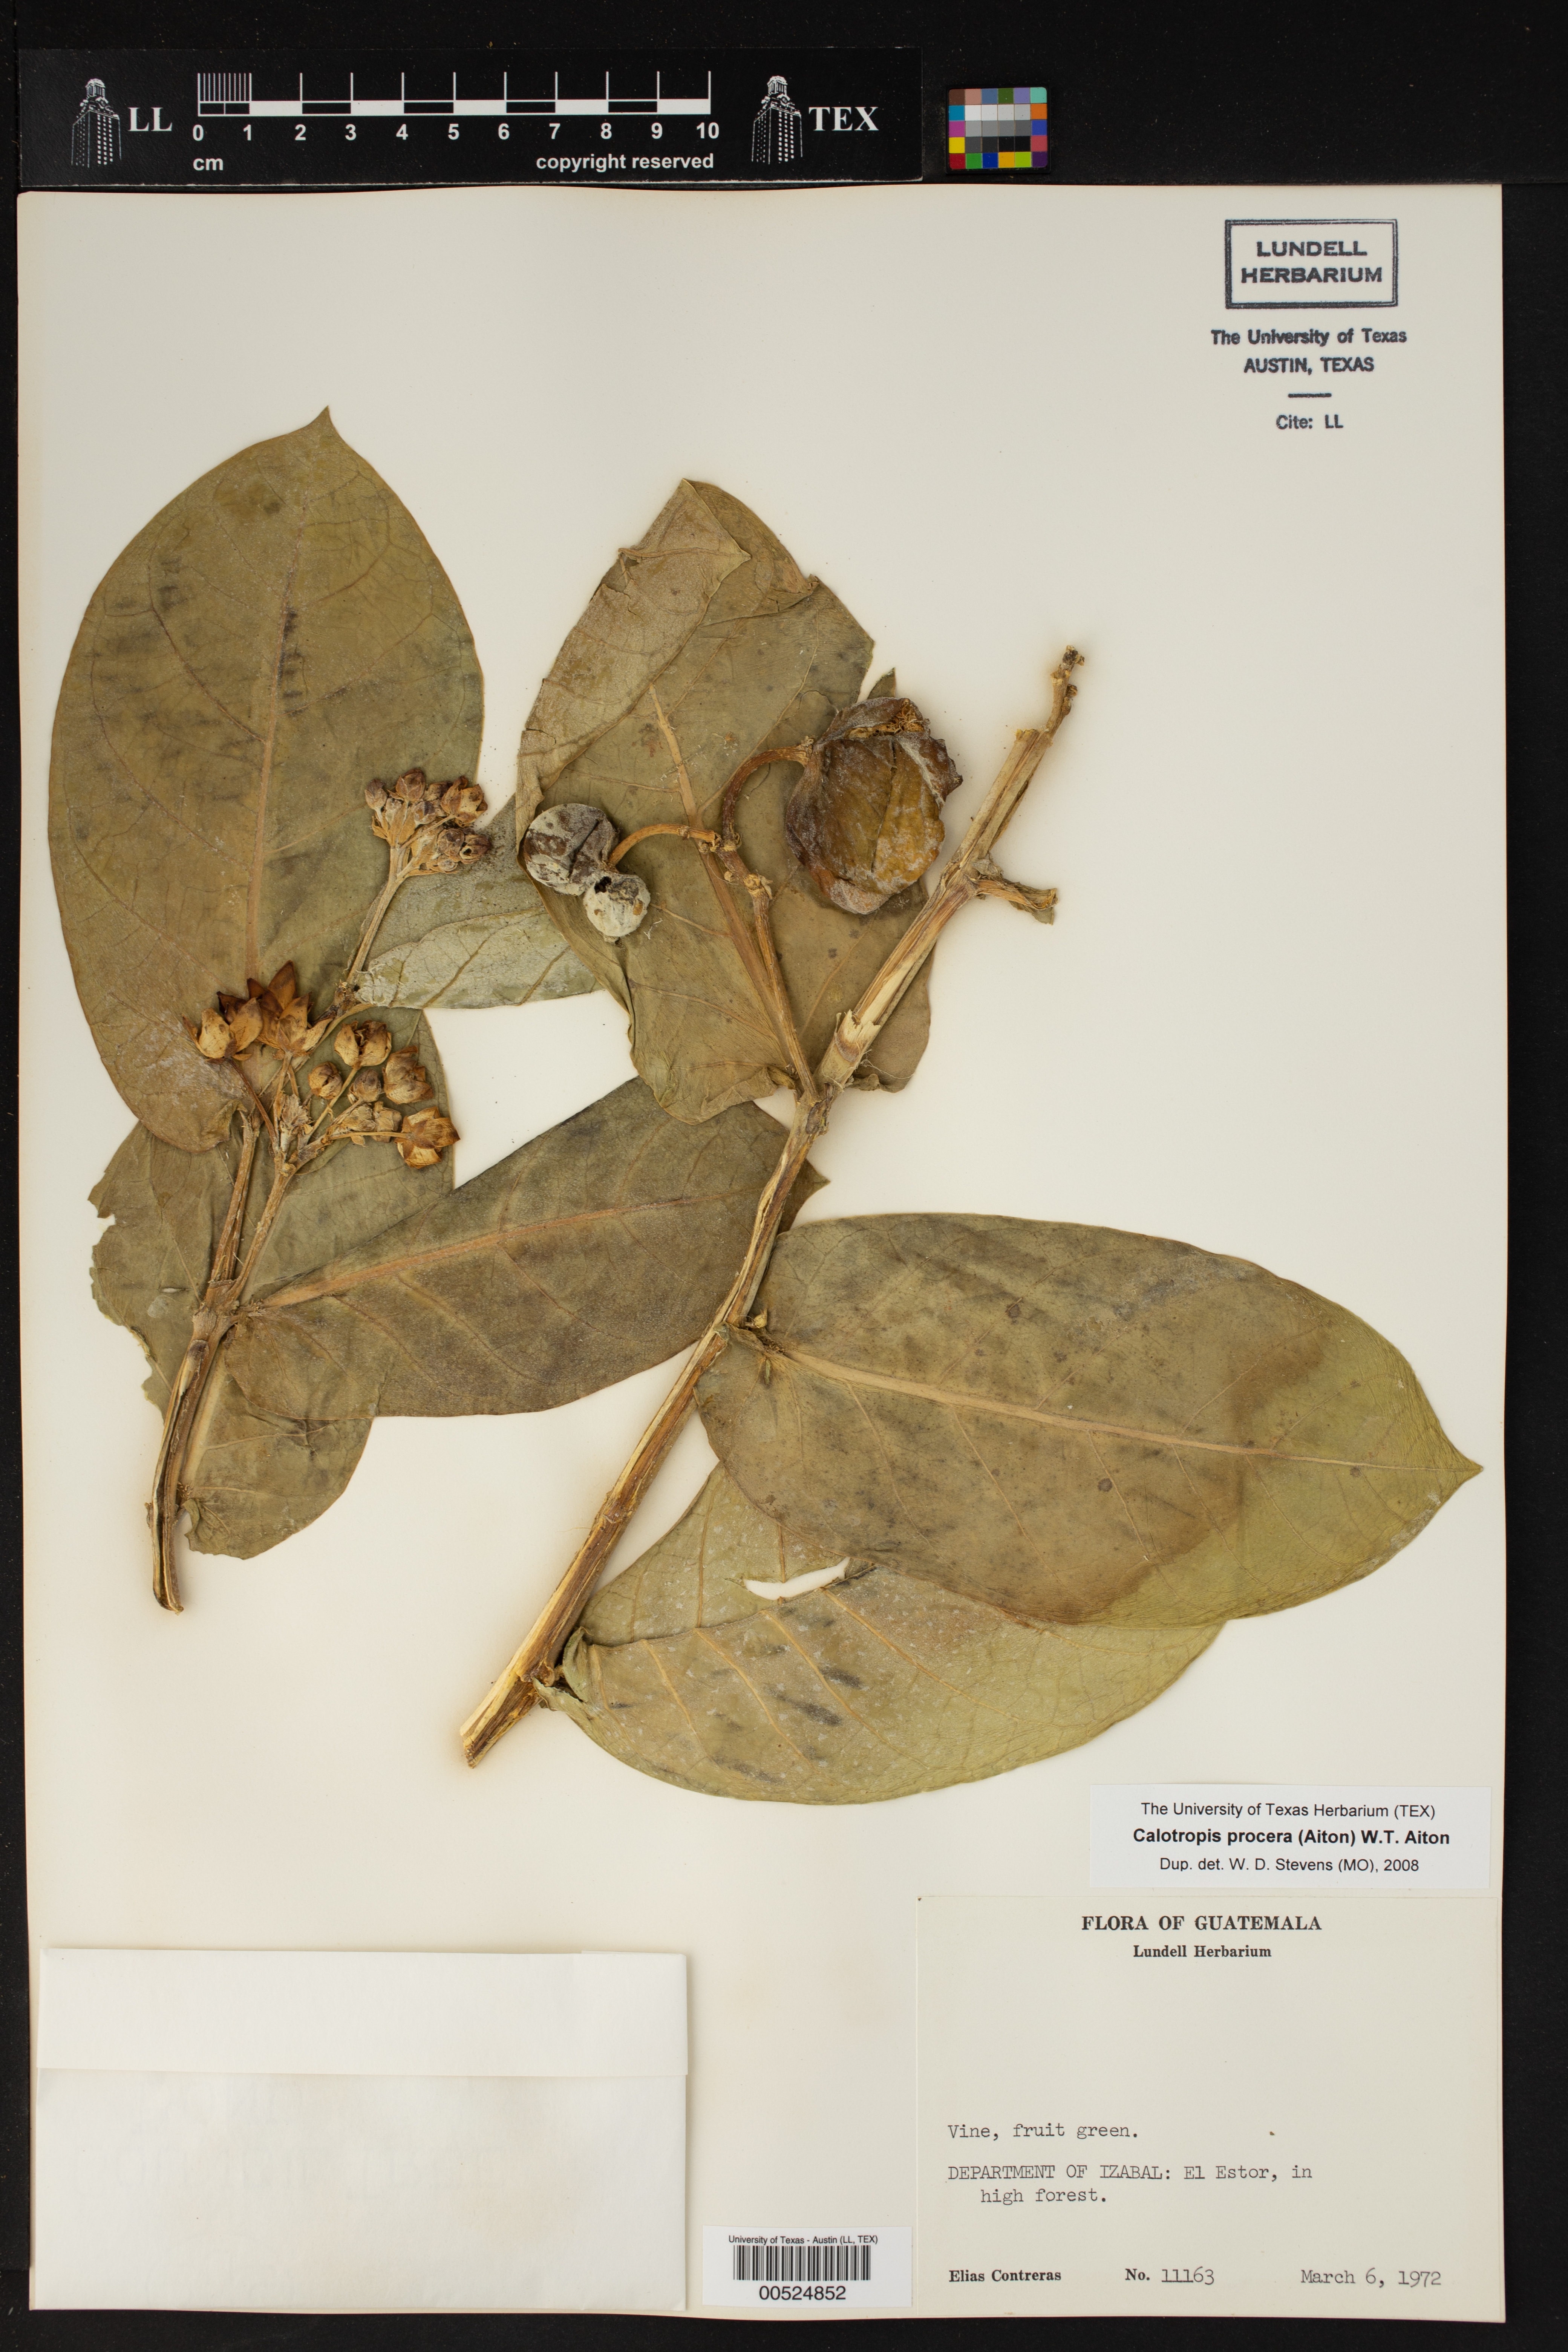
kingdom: Plantae
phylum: Tracheophyta
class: Magnoliopsida
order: Gentianales
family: Apocynaceae
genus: Calotropis
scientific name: Calotropis procera
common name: Roostertree
